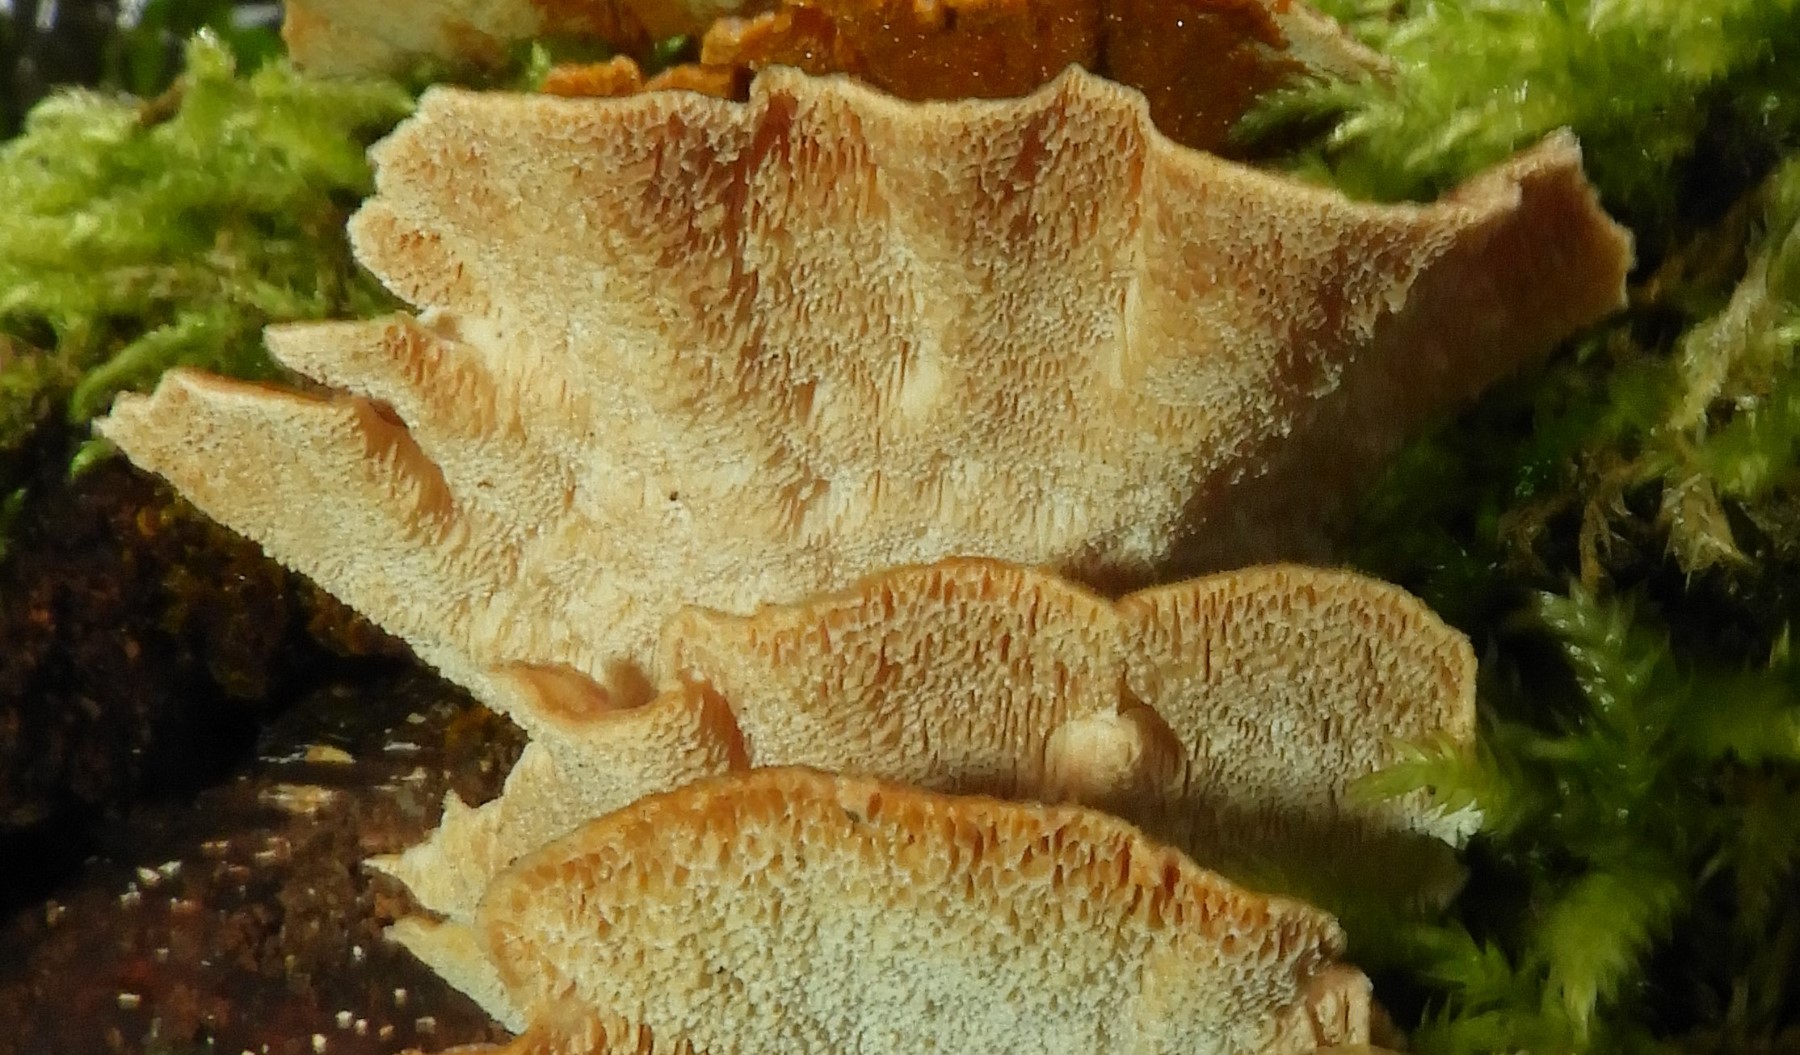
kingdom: Fungi
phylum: Basidiomycota
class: Agaricomycetes
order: Polyporales
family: Polyporaceae
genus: Trametes
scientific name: Trametes versicolor
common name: broget læderporesvamp
